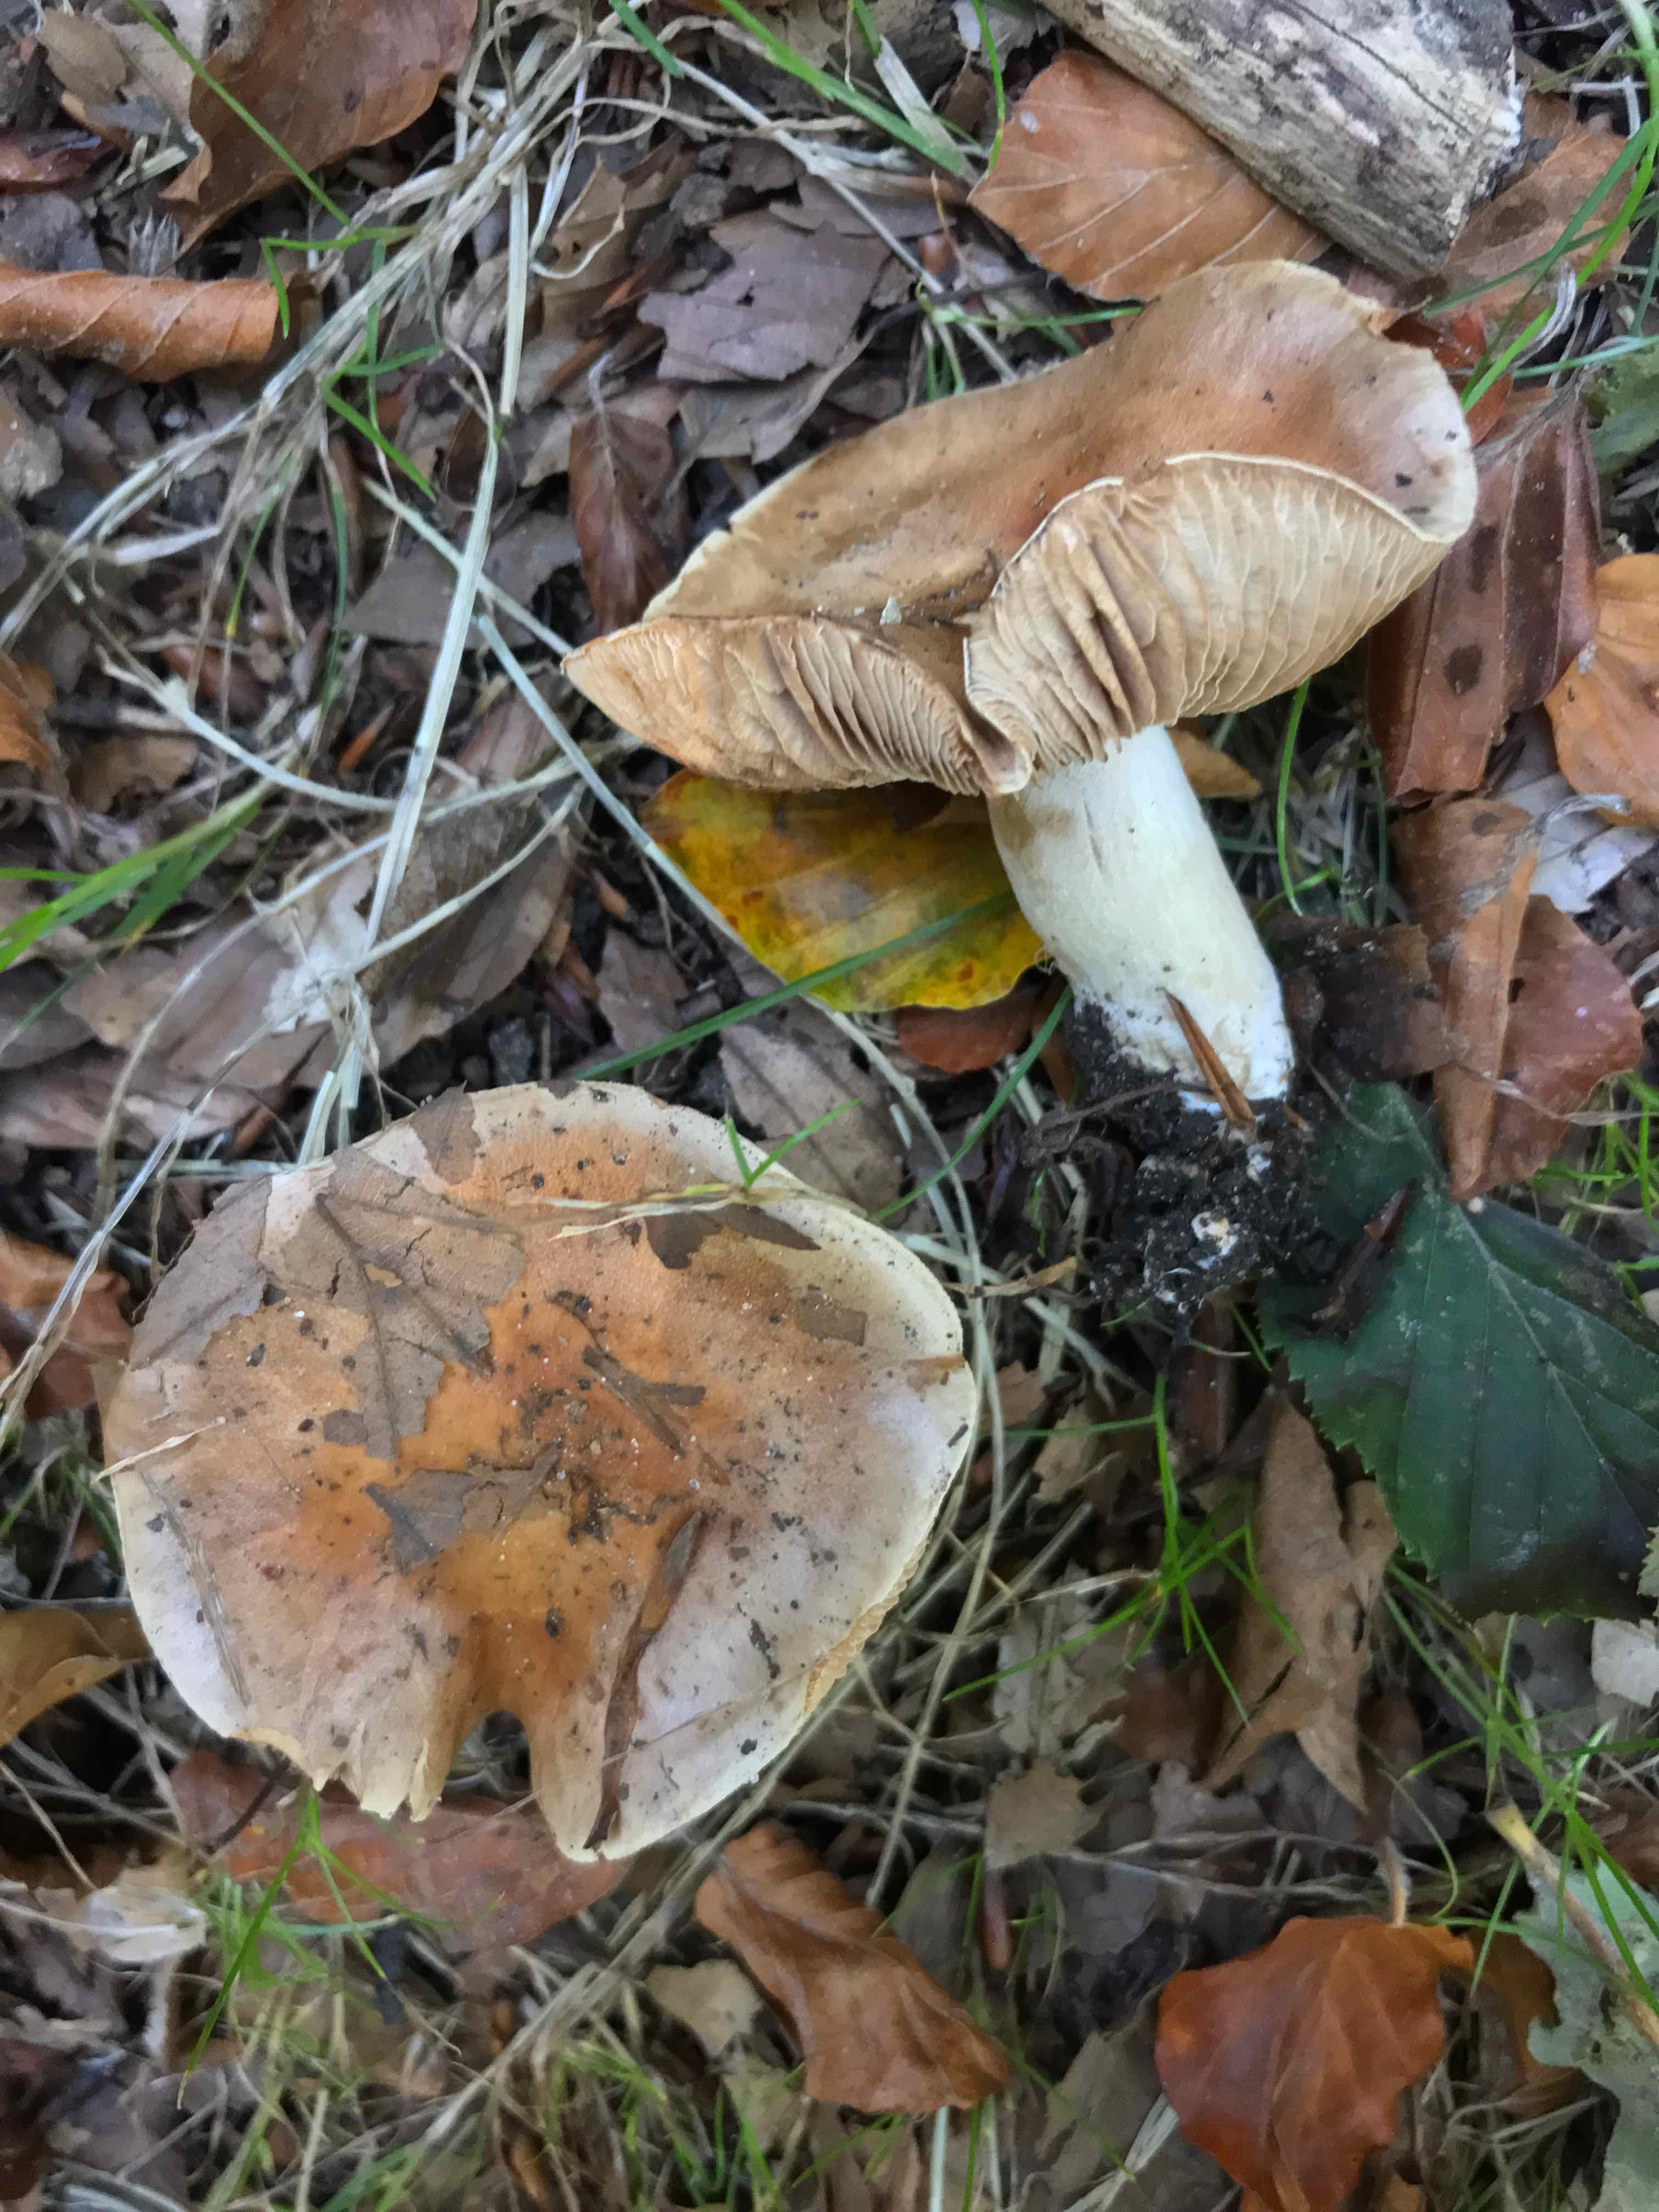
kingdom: Fungi
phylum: Basidiomycota
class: Agaricomycetes
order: Agaricales
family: Hymenogastraceae
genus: Hebeloma
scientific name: Hebeloma sinapizans
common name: ræddike-tåreblad
